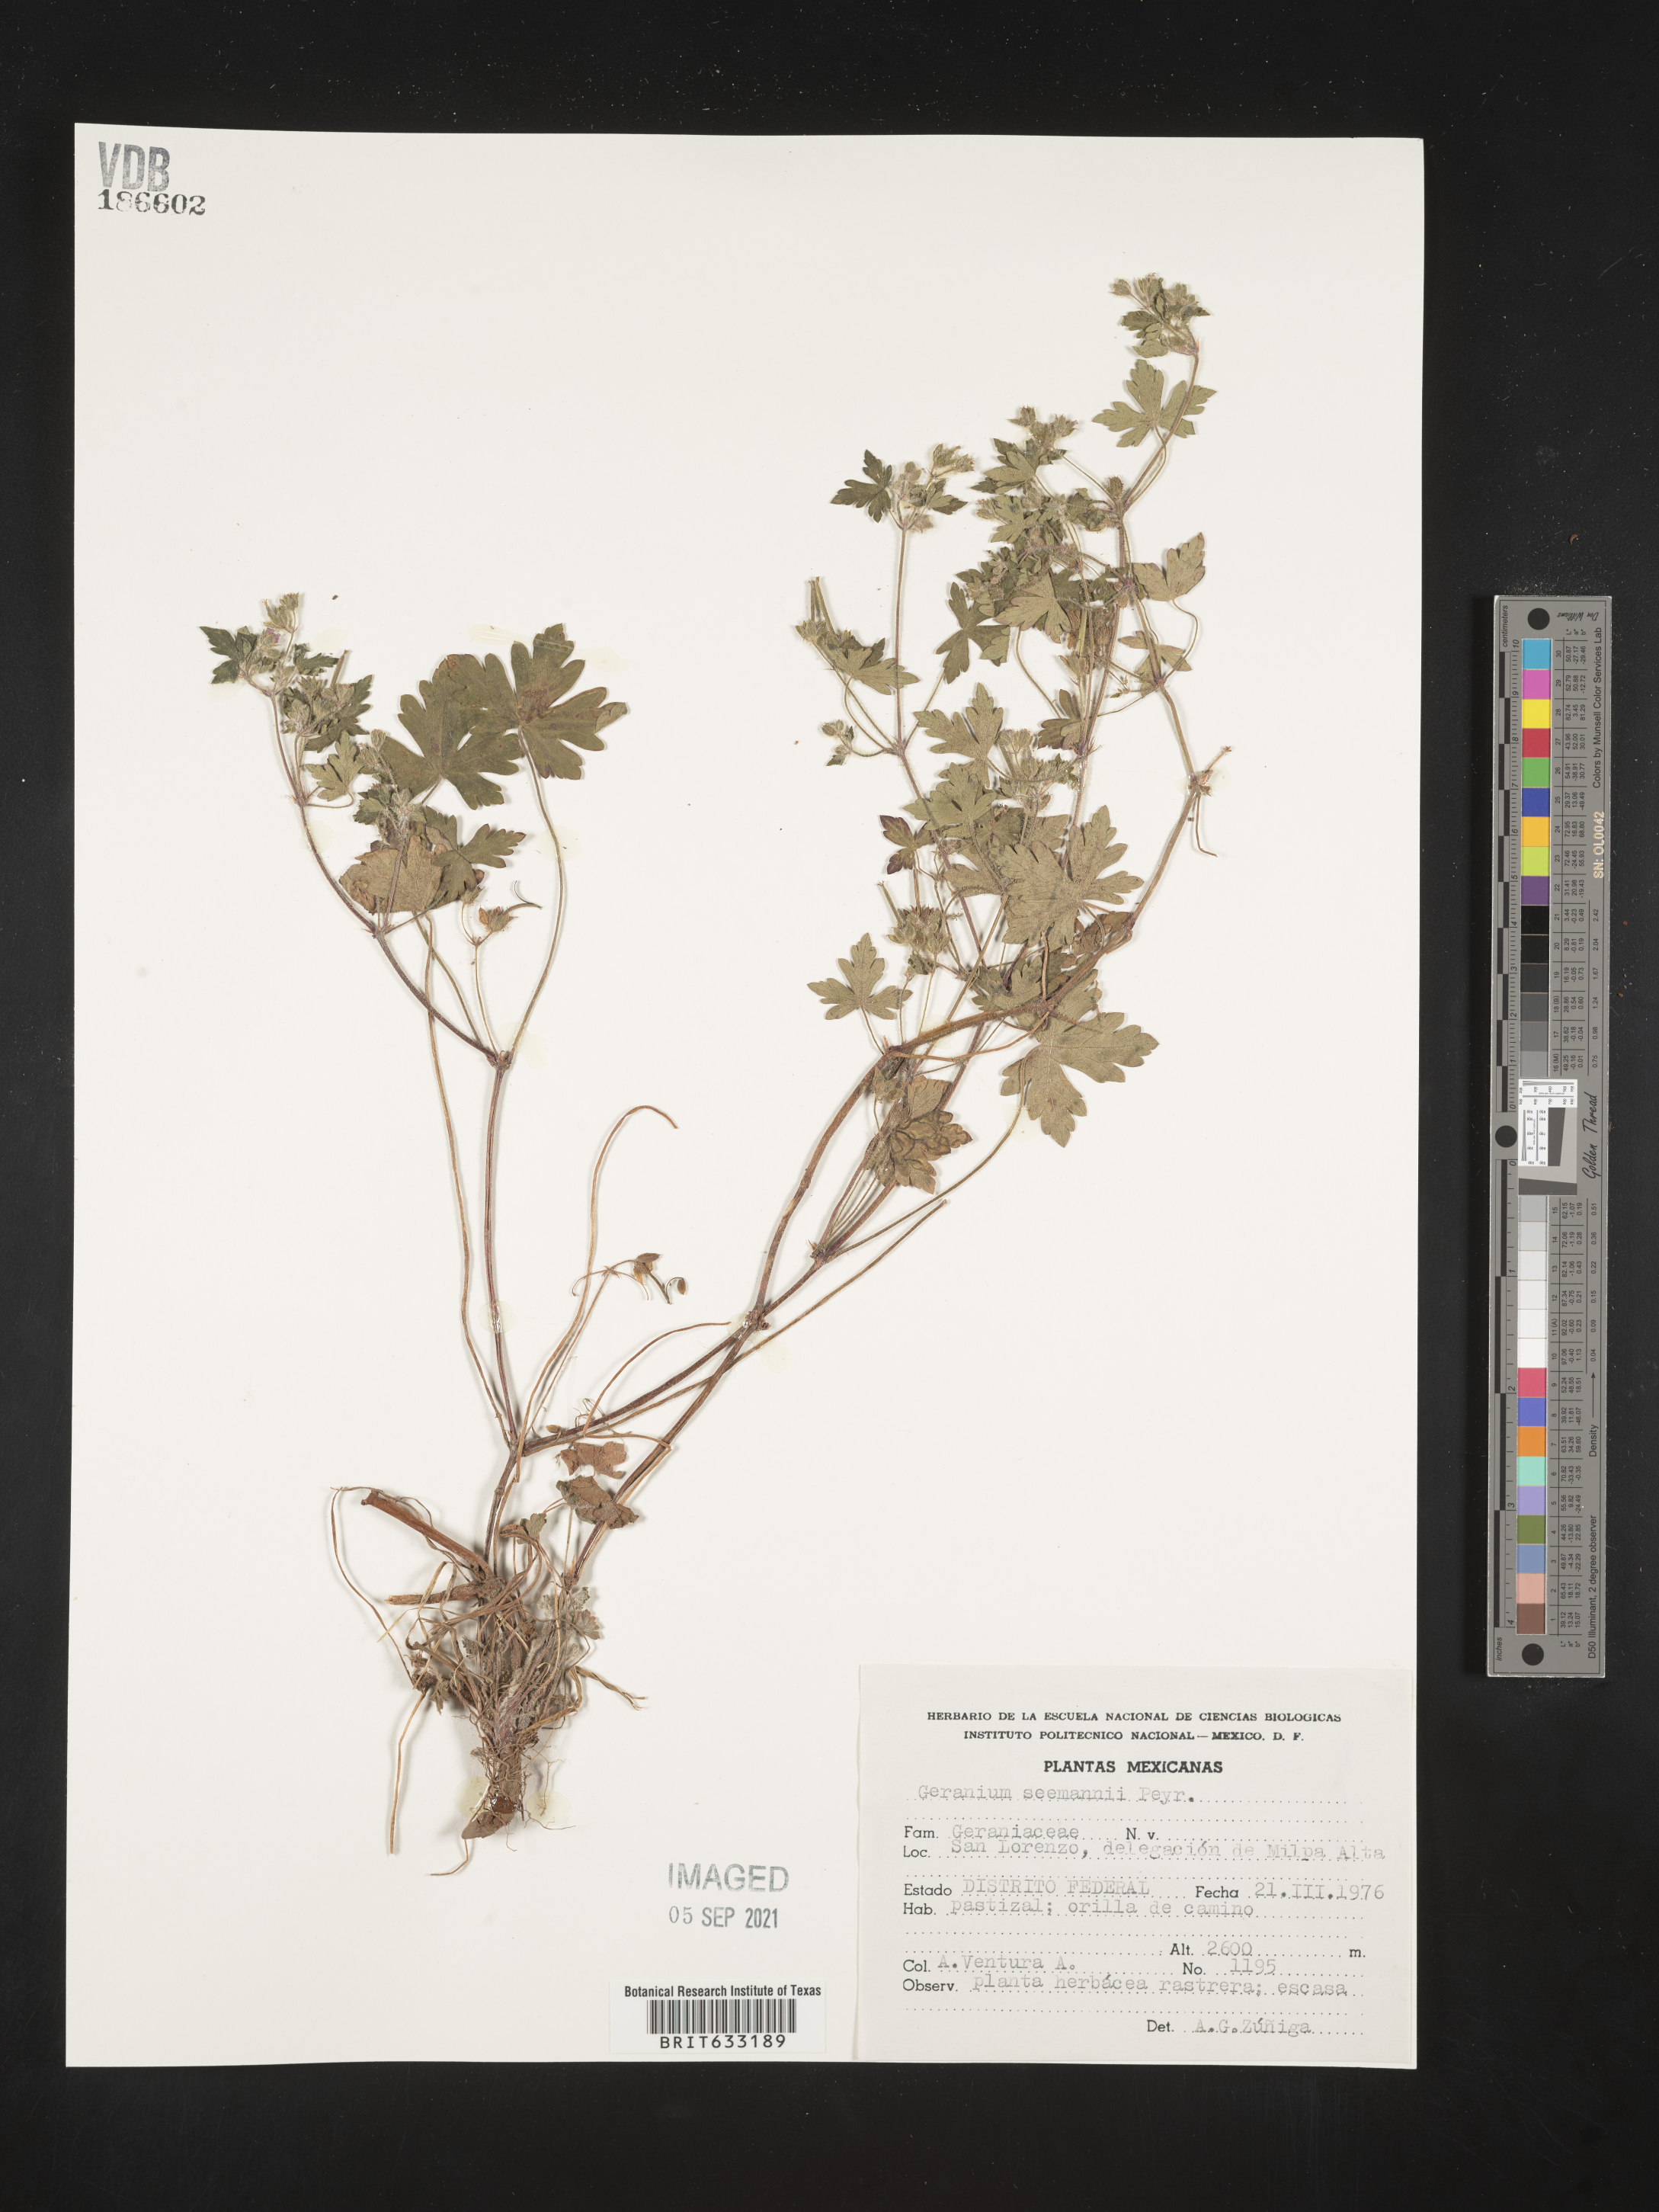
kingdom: Plantae
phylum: Tracheophyta
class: Magnoliopsida
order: Geraniales
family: Geraniaceae
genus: Geranium
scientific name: Geranium
